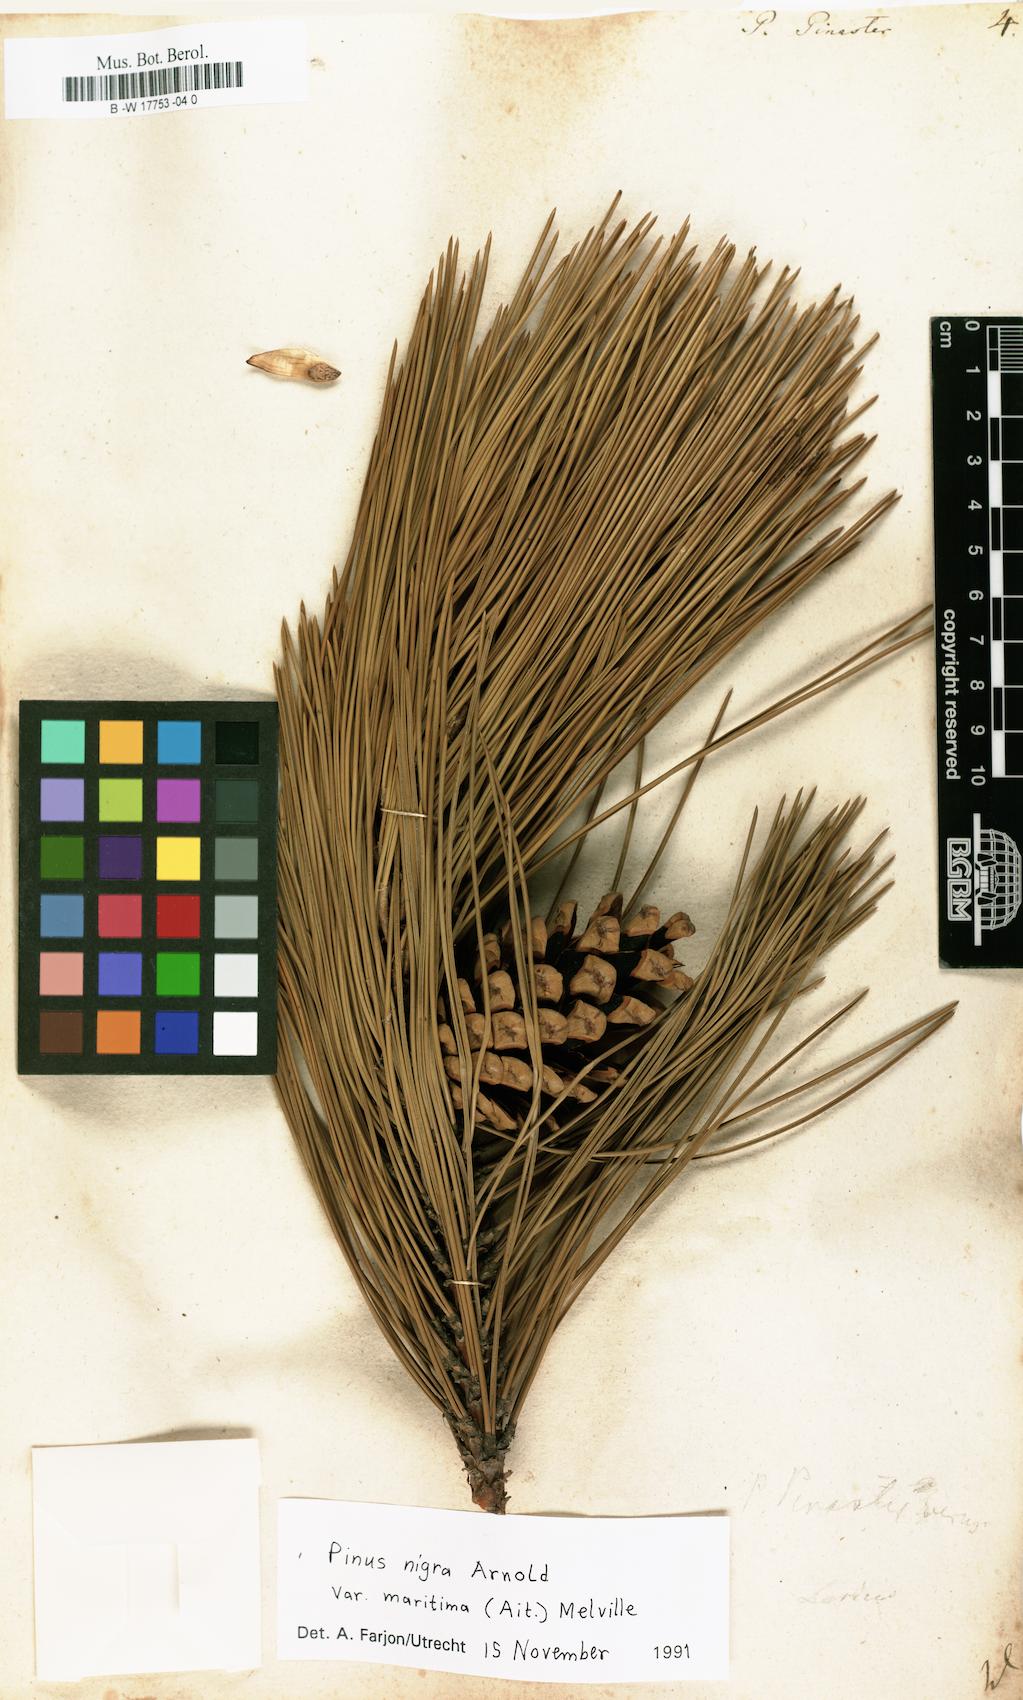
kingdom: Plantae
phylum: Tracheophyta
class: Pinopsida
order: Pinales
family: Pinaceae
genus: Pinus
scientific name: Pinus pinaster
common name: Maritime pine
